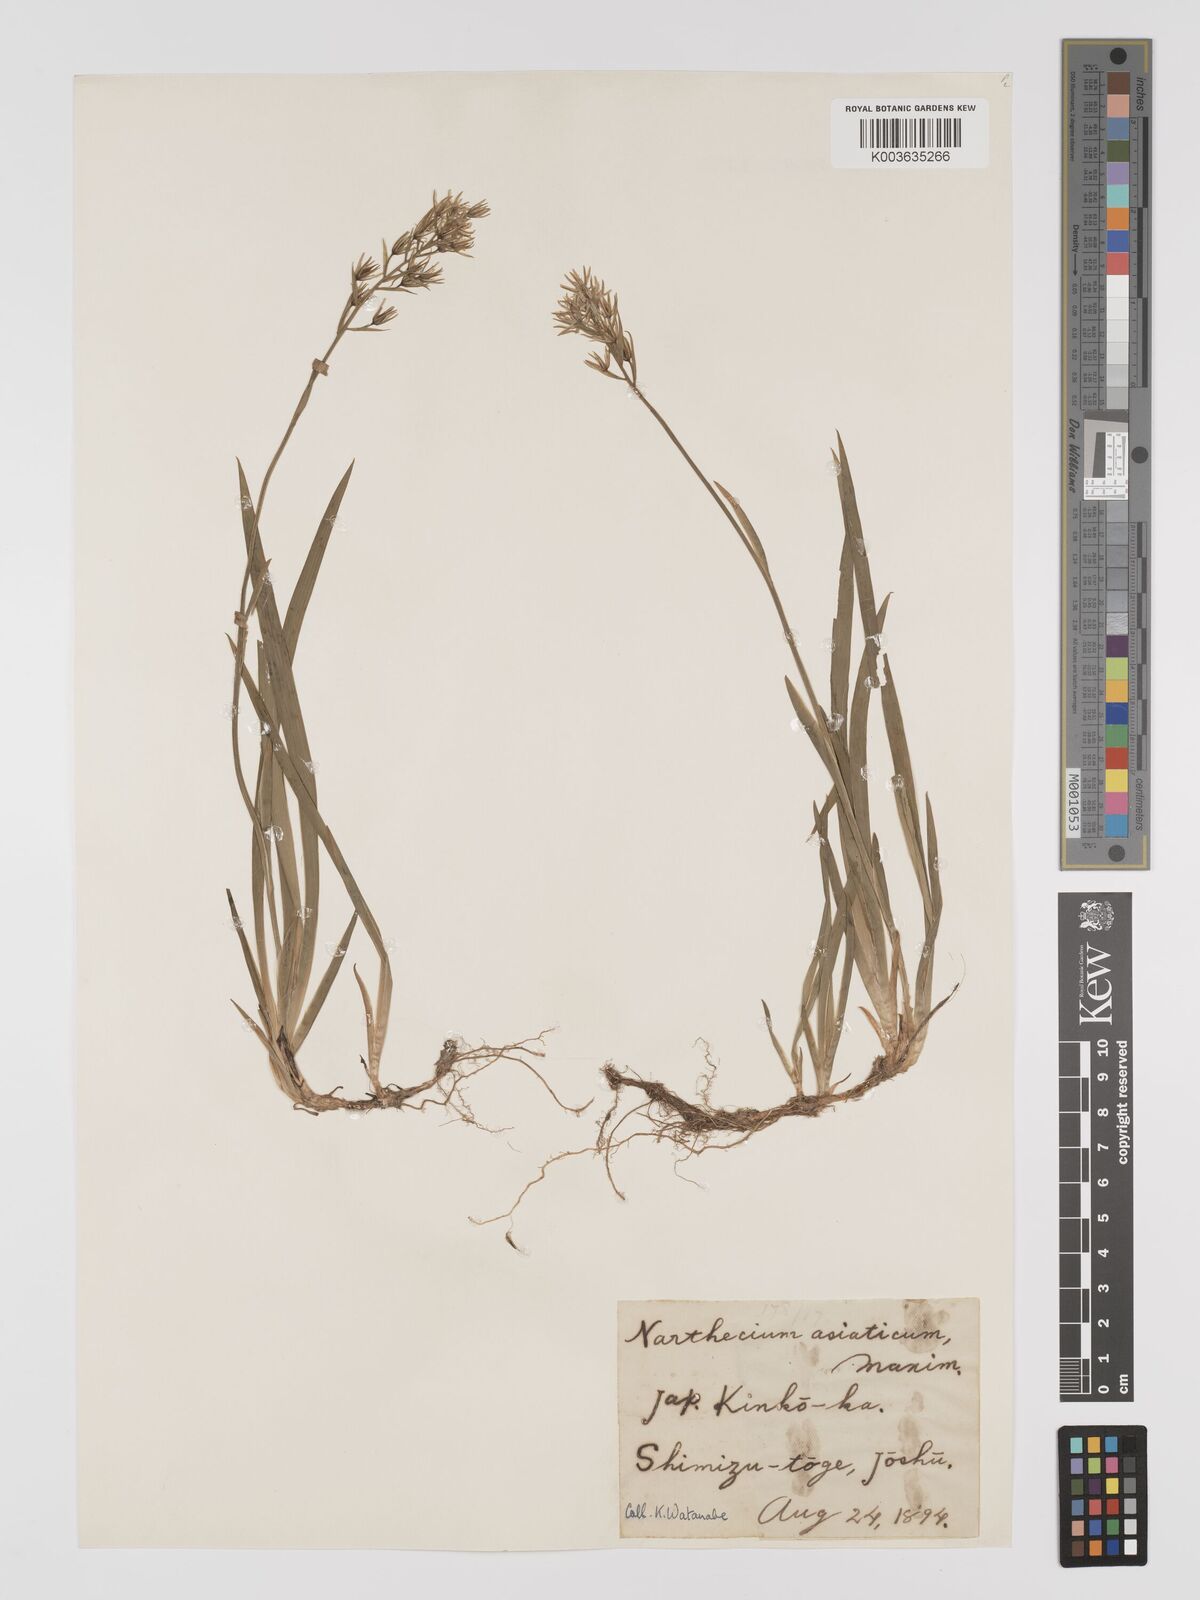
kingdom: Plantae
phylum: Tracheophyta
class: Liliopsida
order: Dioscoreales
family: Nartheciaceae
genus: Narthecium
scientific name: Narthecium asiaticum
